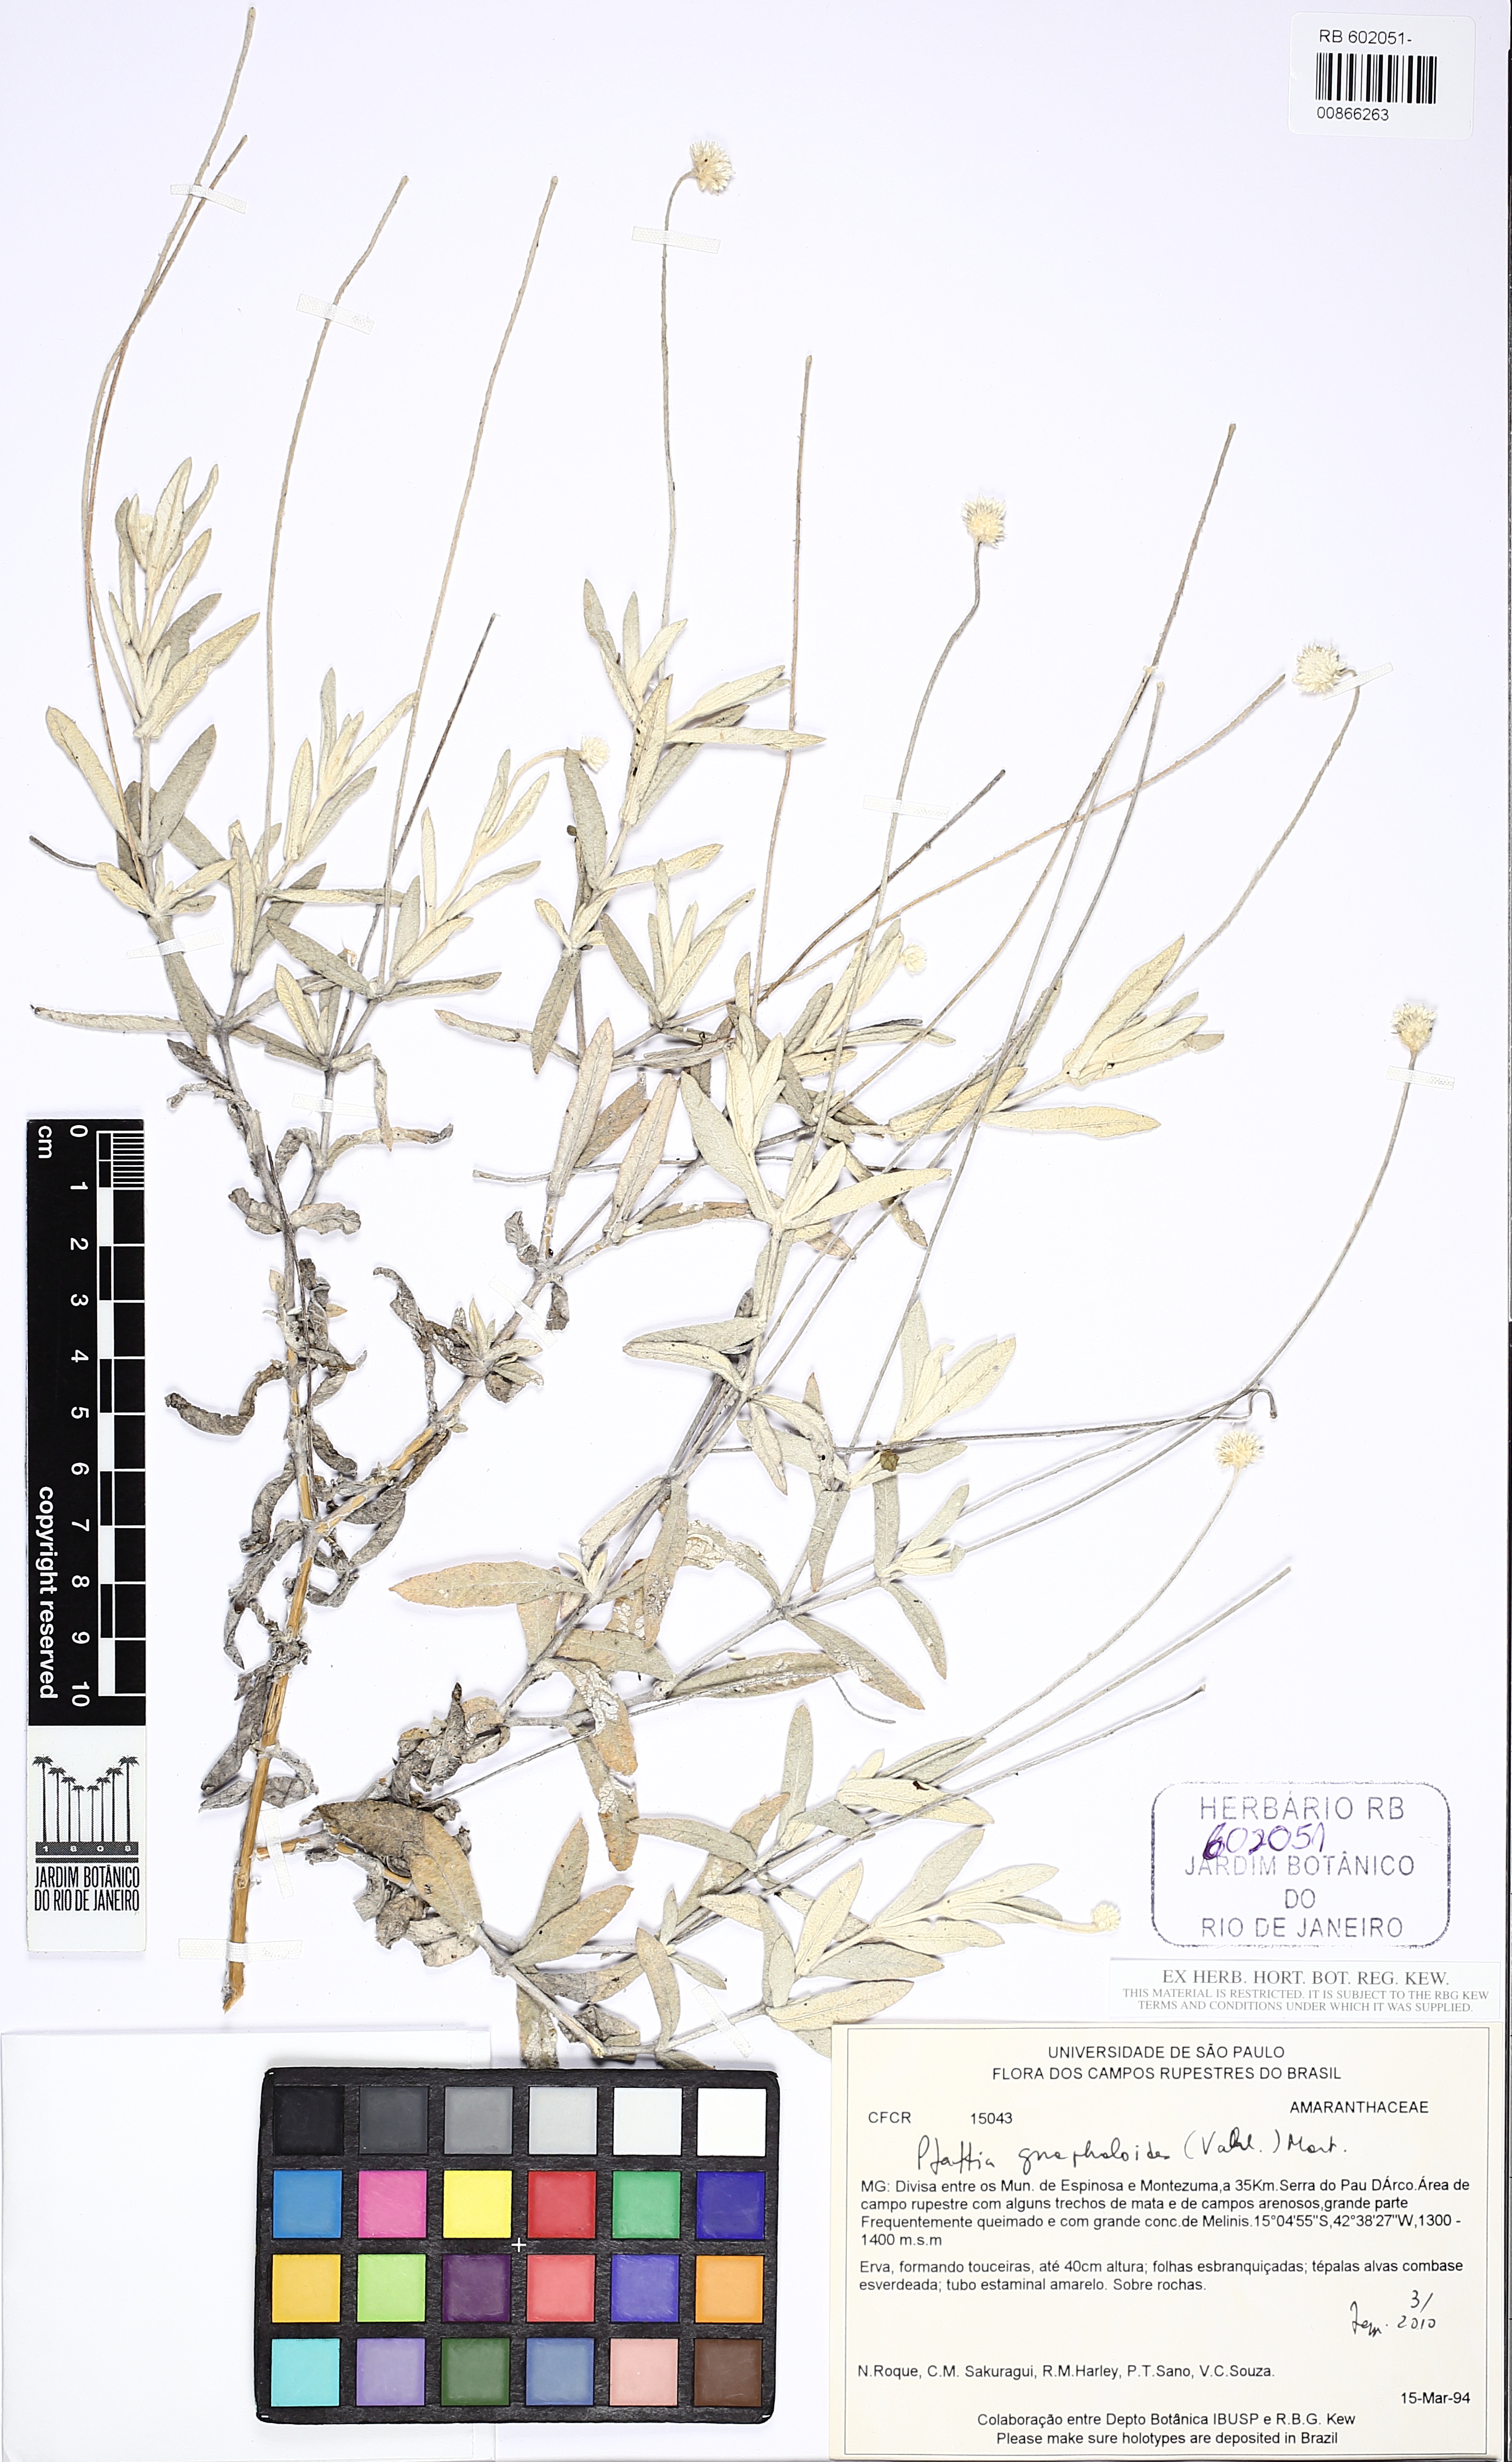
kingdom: Plantae
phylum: Tracheophyta
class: Magnoliopsida
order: Caryophyllales
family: Amaranthaceae
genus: Pfaffia
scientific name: Pfaffia gnaphaloides
